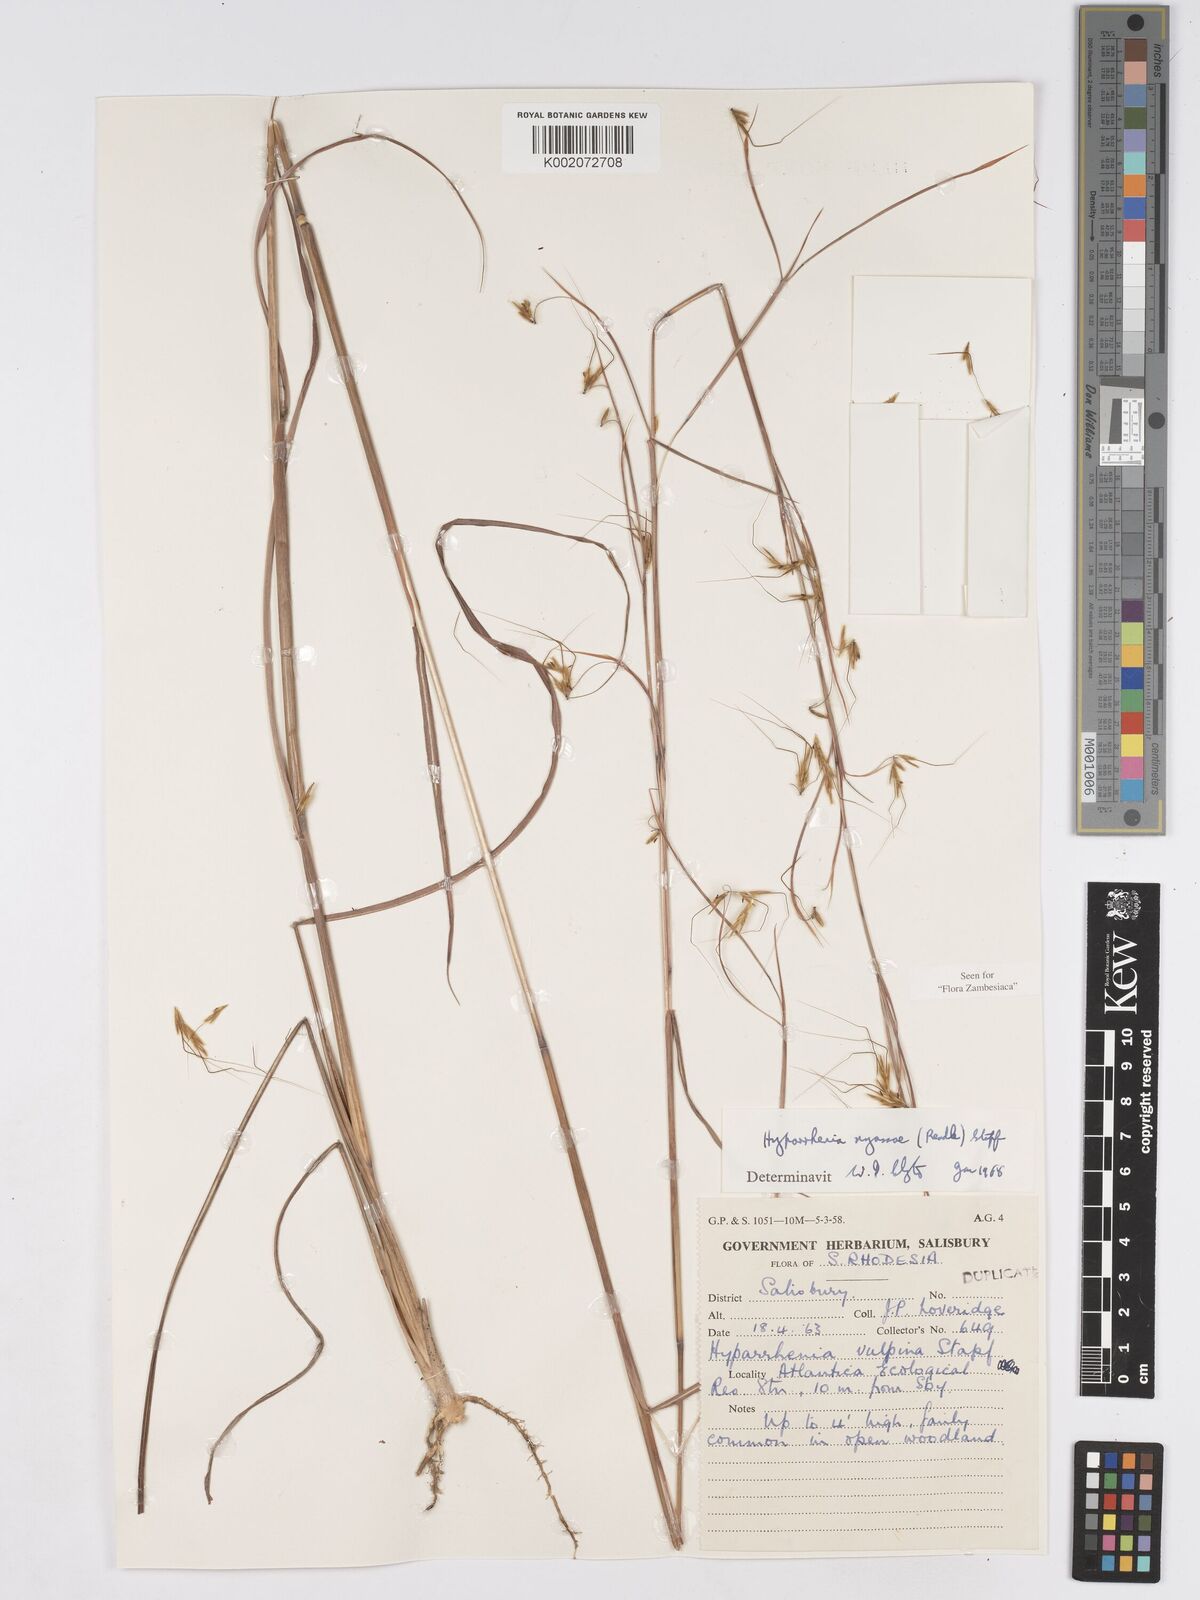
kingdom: Plantae
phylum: Tracheophyta
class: Liliopsida
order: Poales
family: Poaceae
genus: Hyparrhenia
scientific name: Hyparrhenia nyassae
